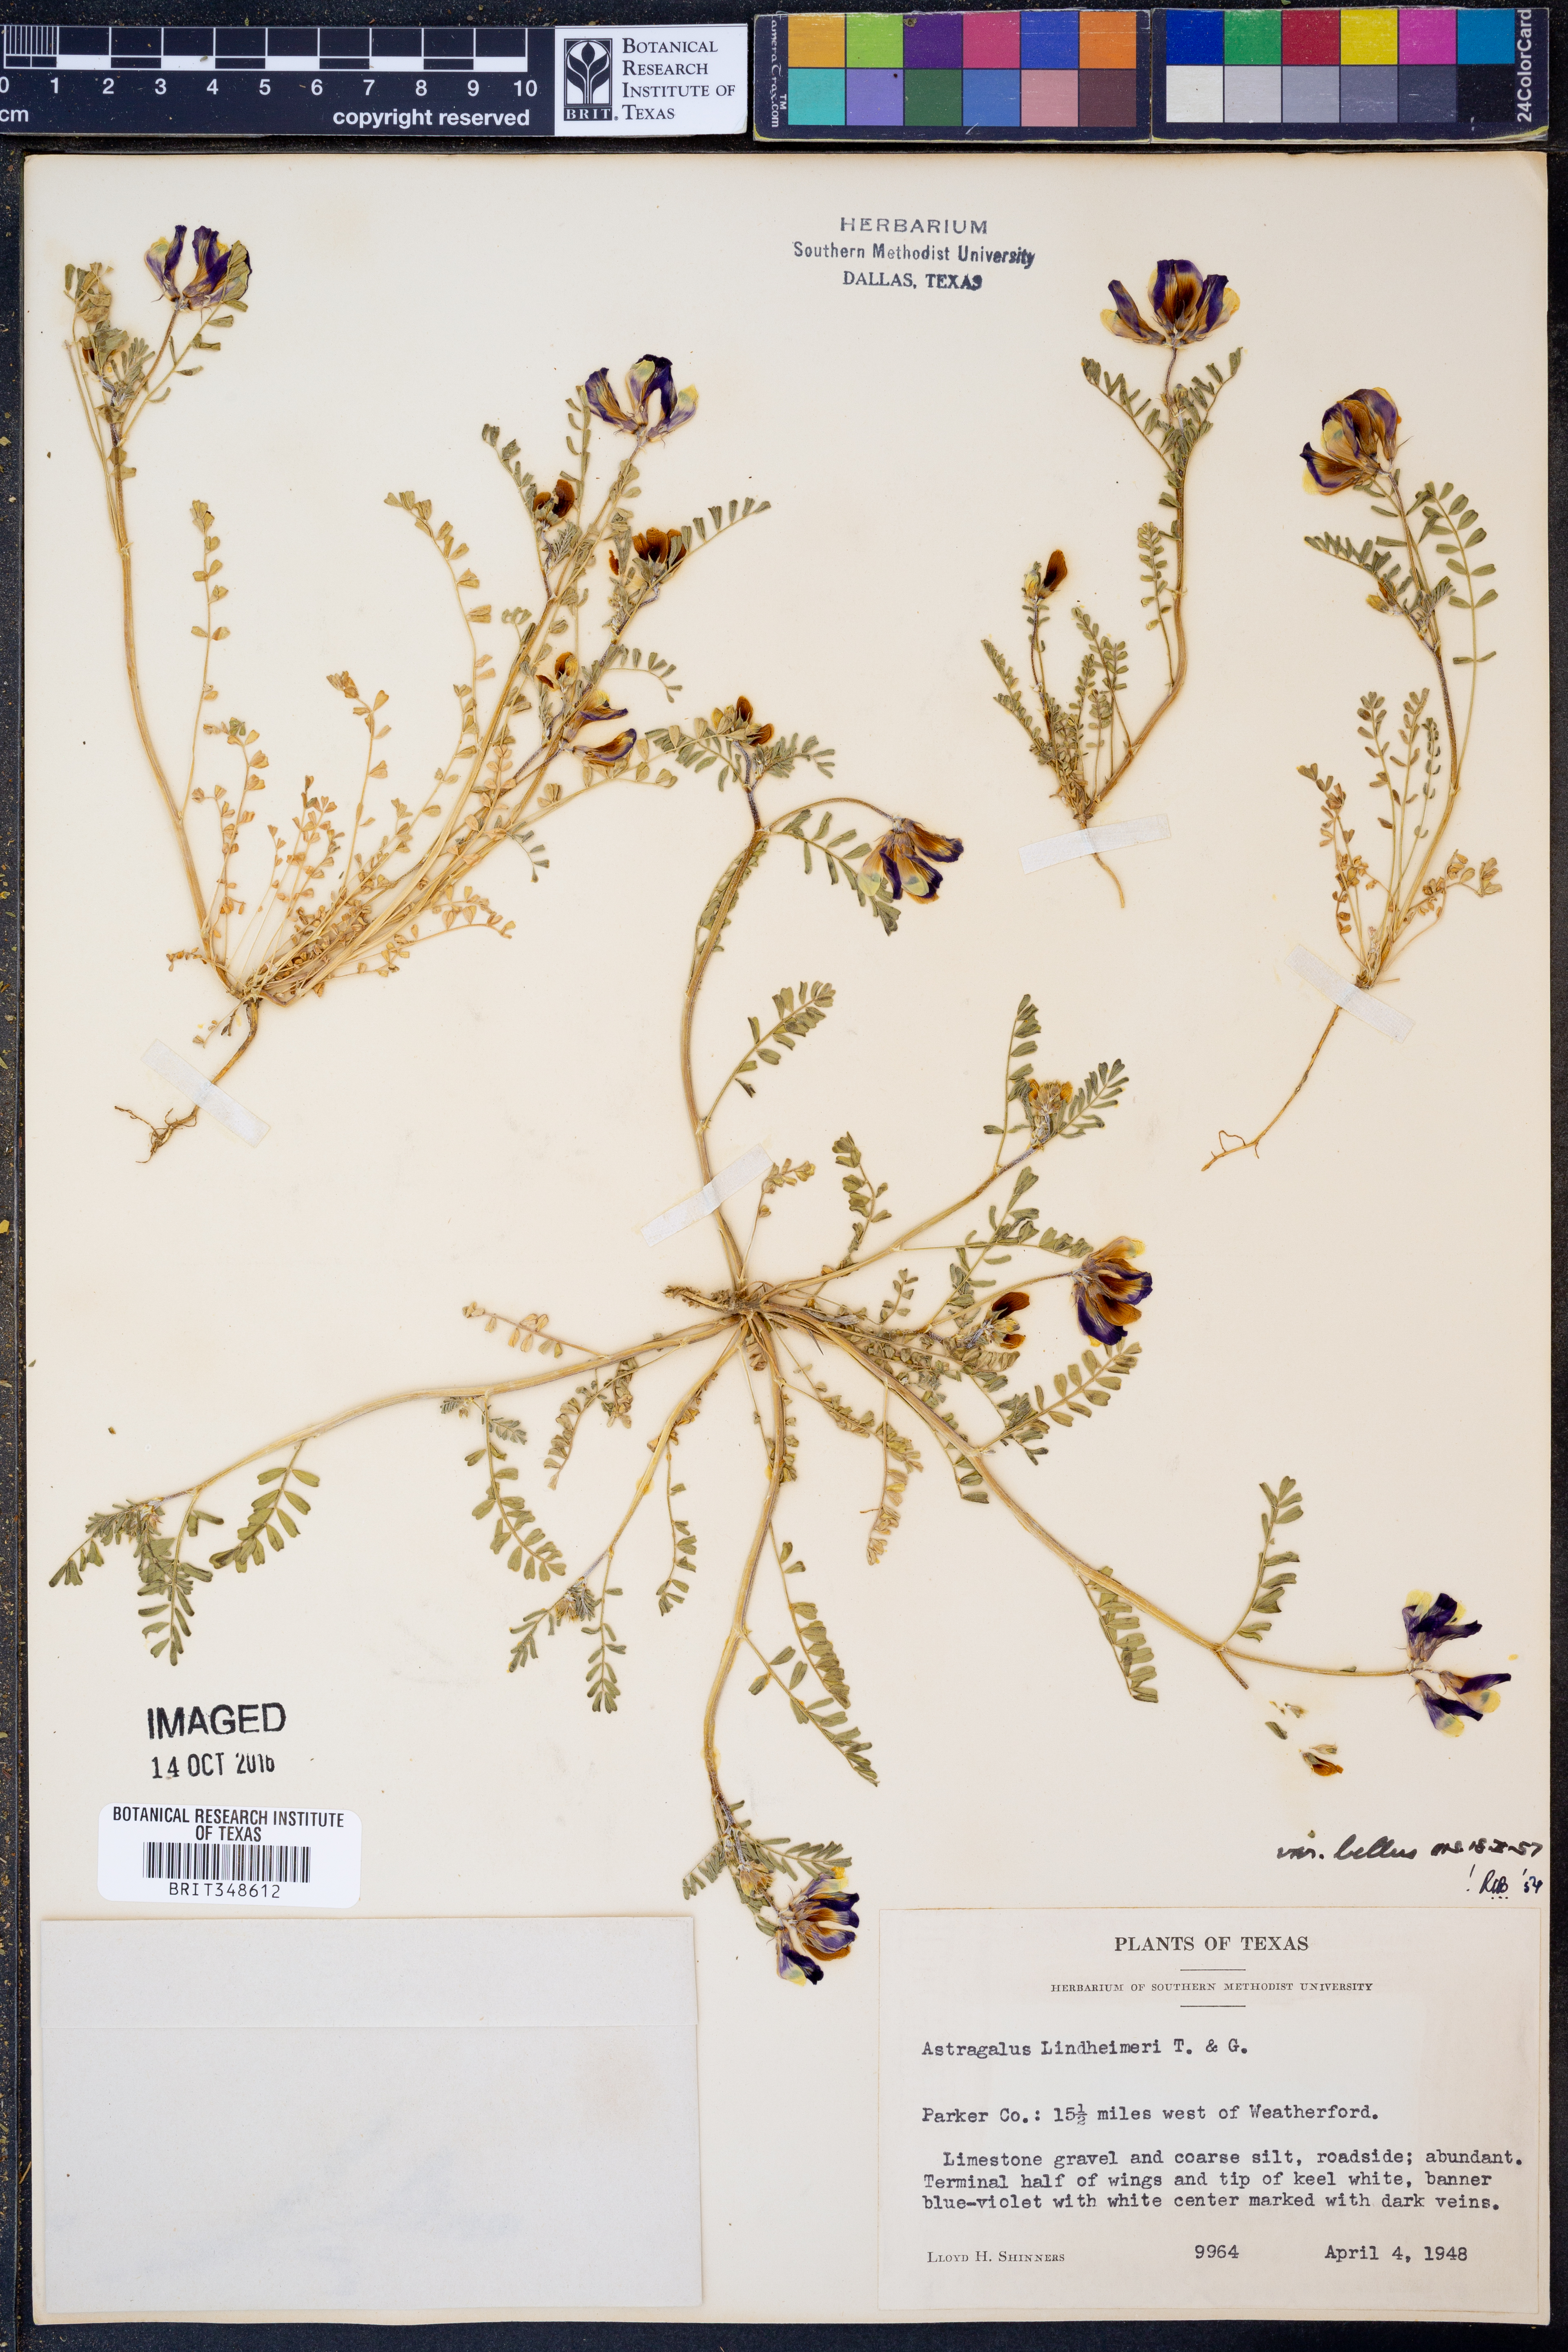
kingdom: Plantae
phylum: Tracheophyta
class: Magnoliopsida
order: Fabales
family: Fabaceae
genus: Astragalus
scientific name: Astragalus lindheimeri
